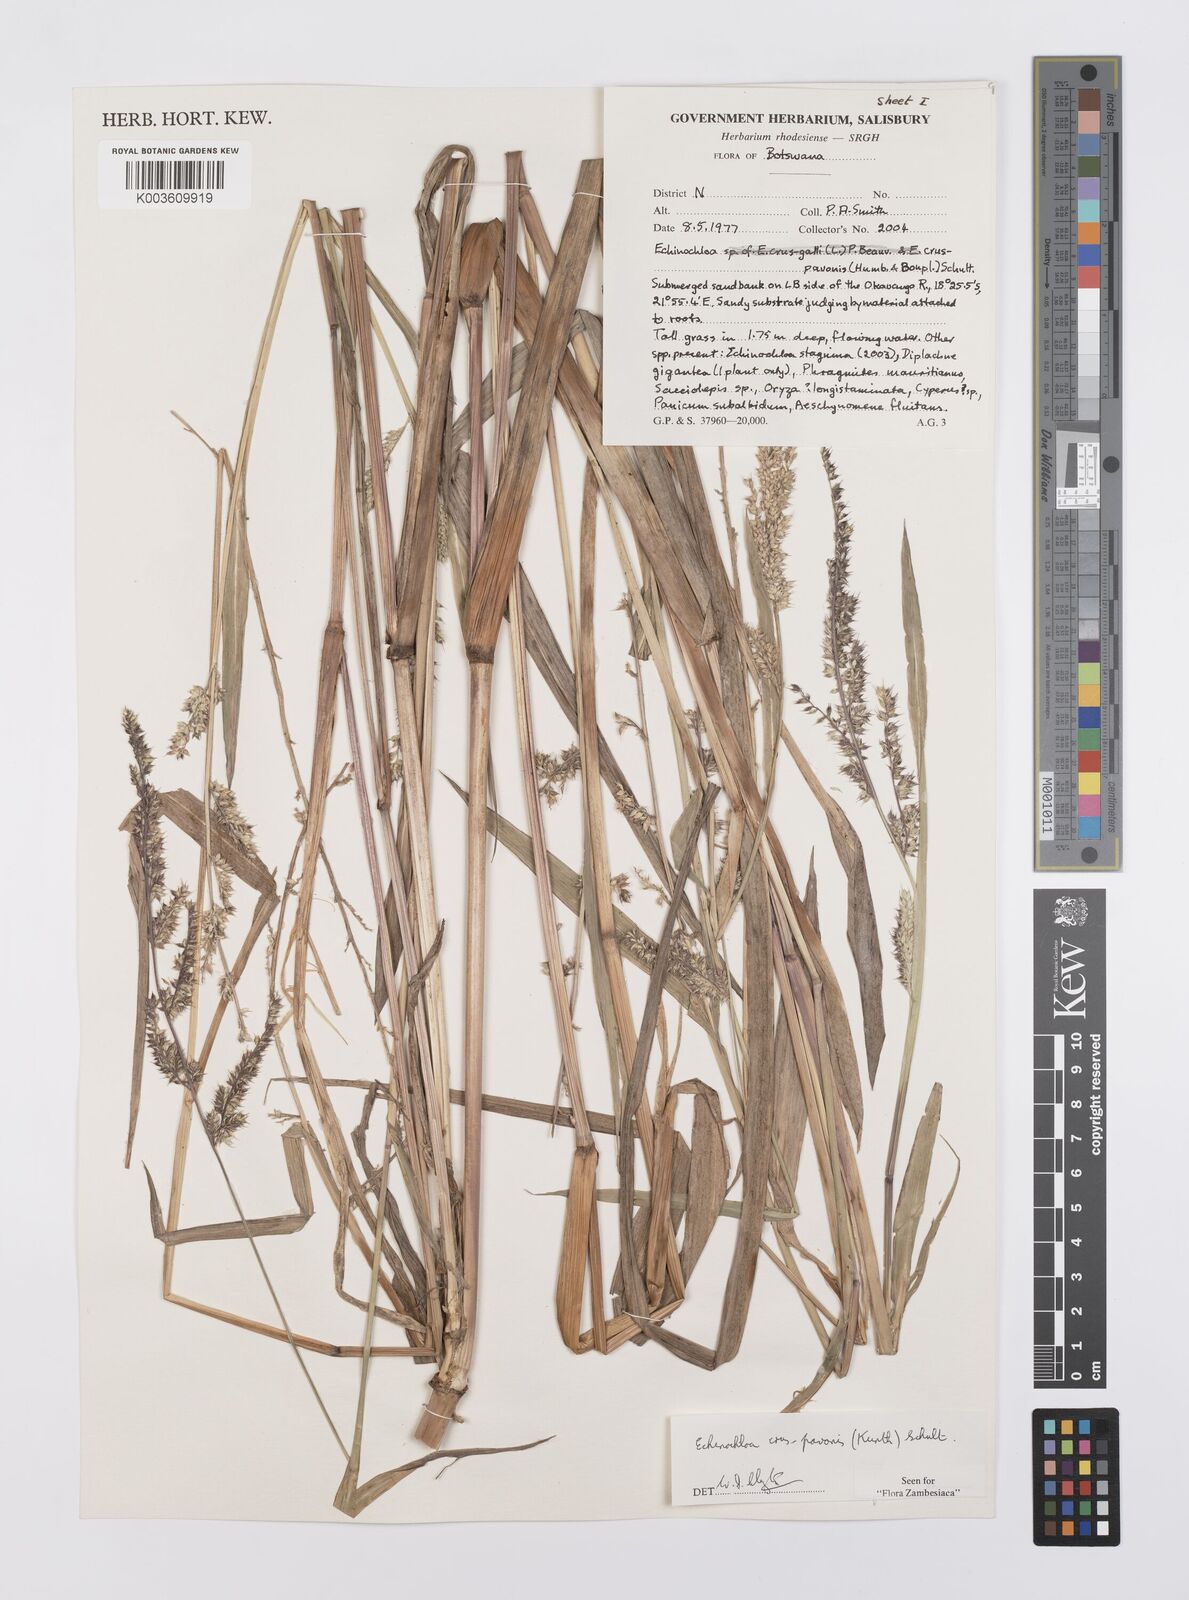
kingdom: Plantae
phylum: Tracheophyta
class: Liliopsida
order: Poales
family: Poaceae
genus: Echinochloa
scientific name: Echinochloa crus-pavonis
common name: Gulf cockspur grass
